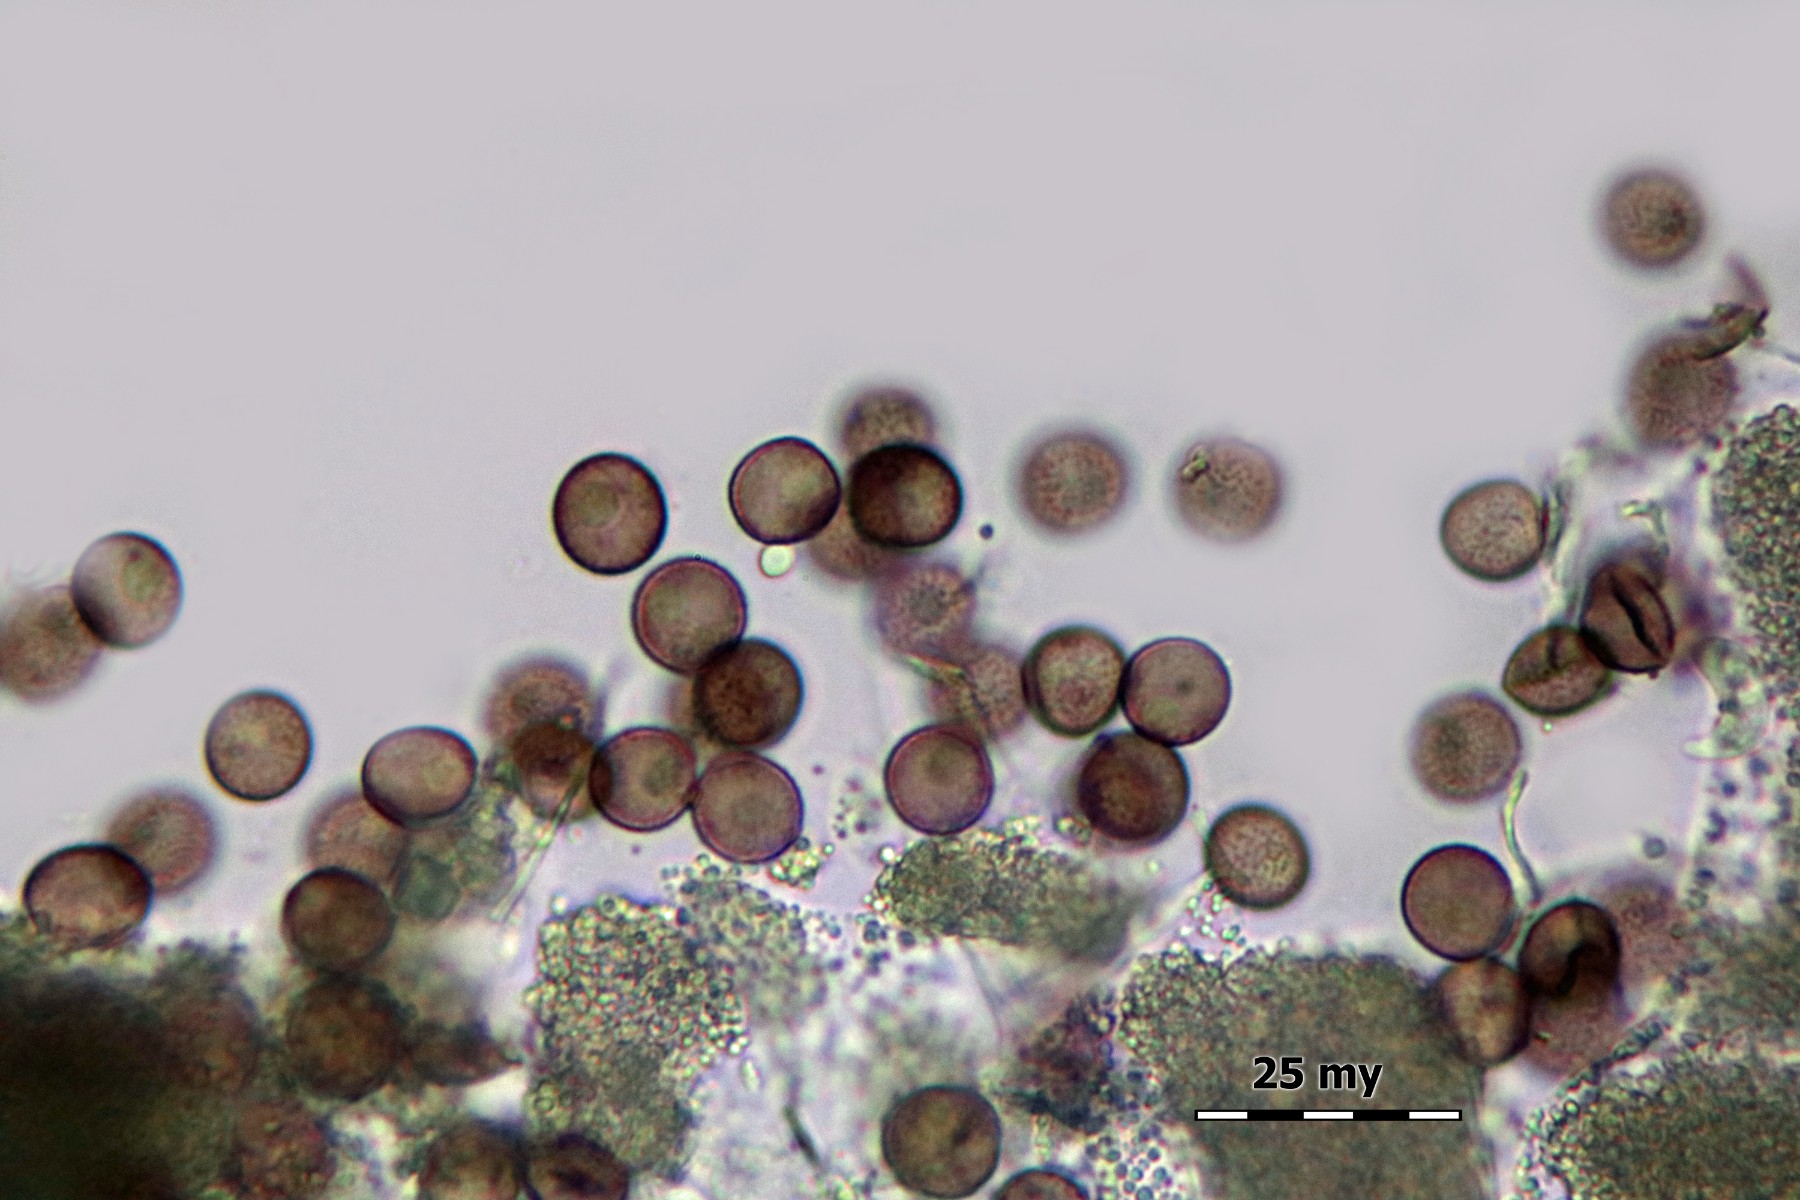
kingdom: Protozoa
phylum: Mycetozoa
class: Myxomycetes
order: Physarales
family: Physaraceae
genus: Physarum
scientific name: Physarum leucophaeum
